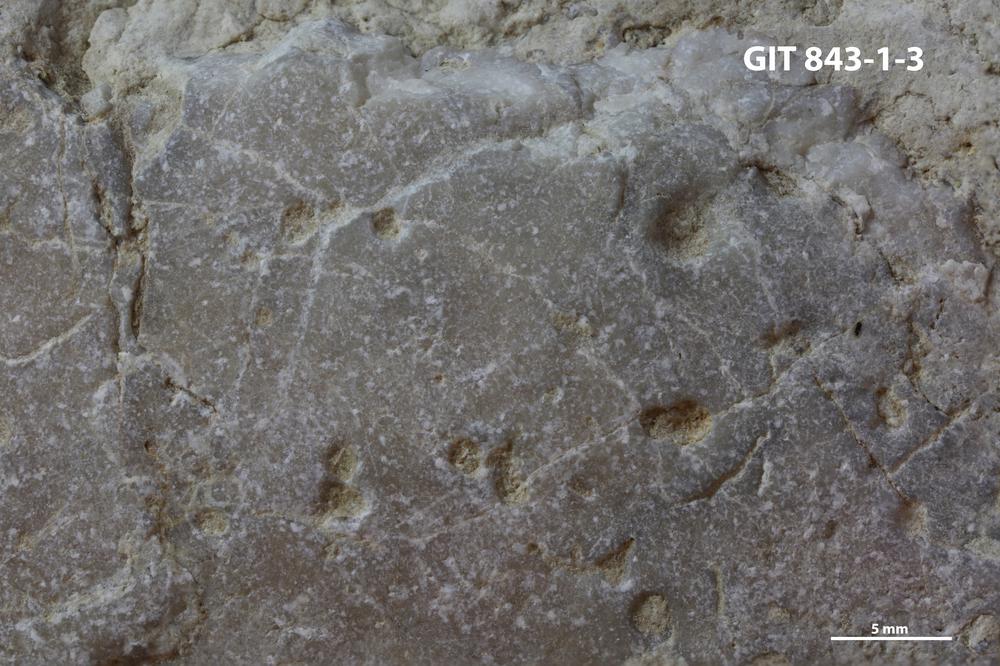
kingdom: Animalia
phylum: Sipuncula
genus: Trypanites
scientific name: Trypanites
